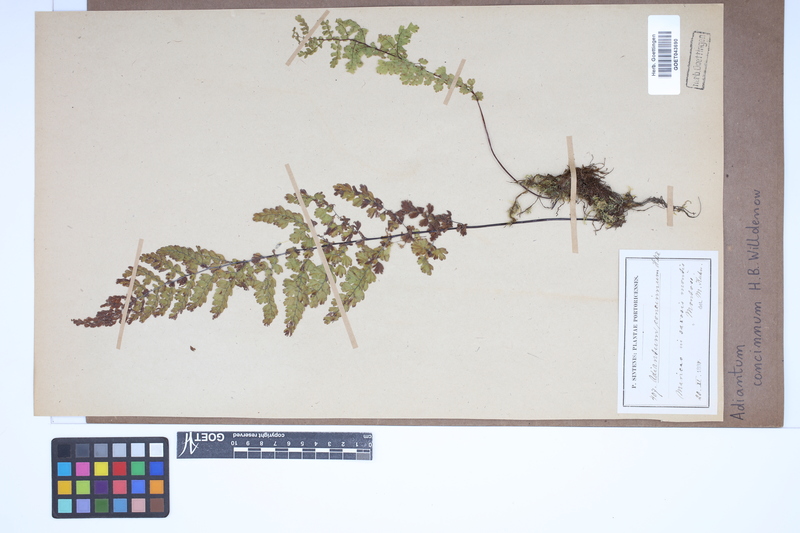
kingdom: Plantae
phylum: Tracheophyta
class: Polypodiopsida
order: Polypodiales
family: Pteridaceae
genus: Adiantum
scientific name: Adiantum concinnum
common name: Brittle maidenhair fern
